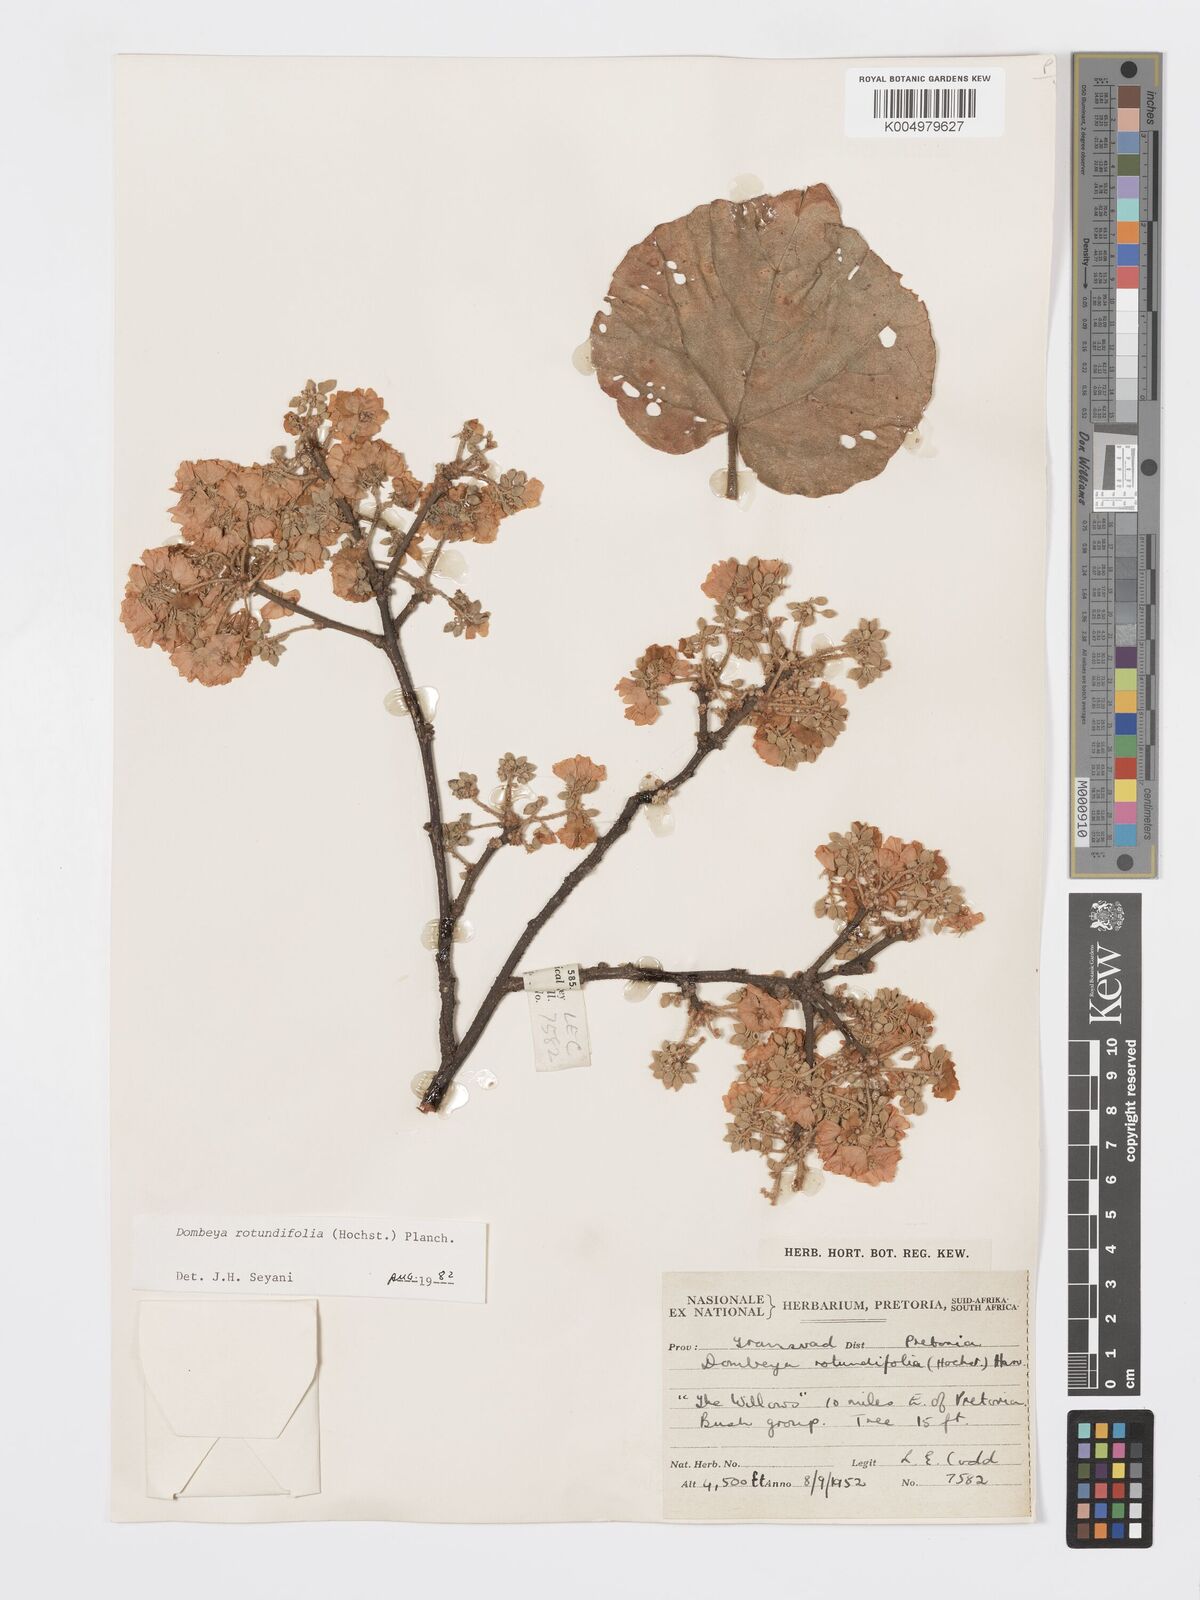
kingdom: Plantae
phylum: Tracheophyta
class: Magnoliopsida
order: Malvales
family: Malvaceae
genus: Dombeya
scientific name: Dombeya rotundifolia
